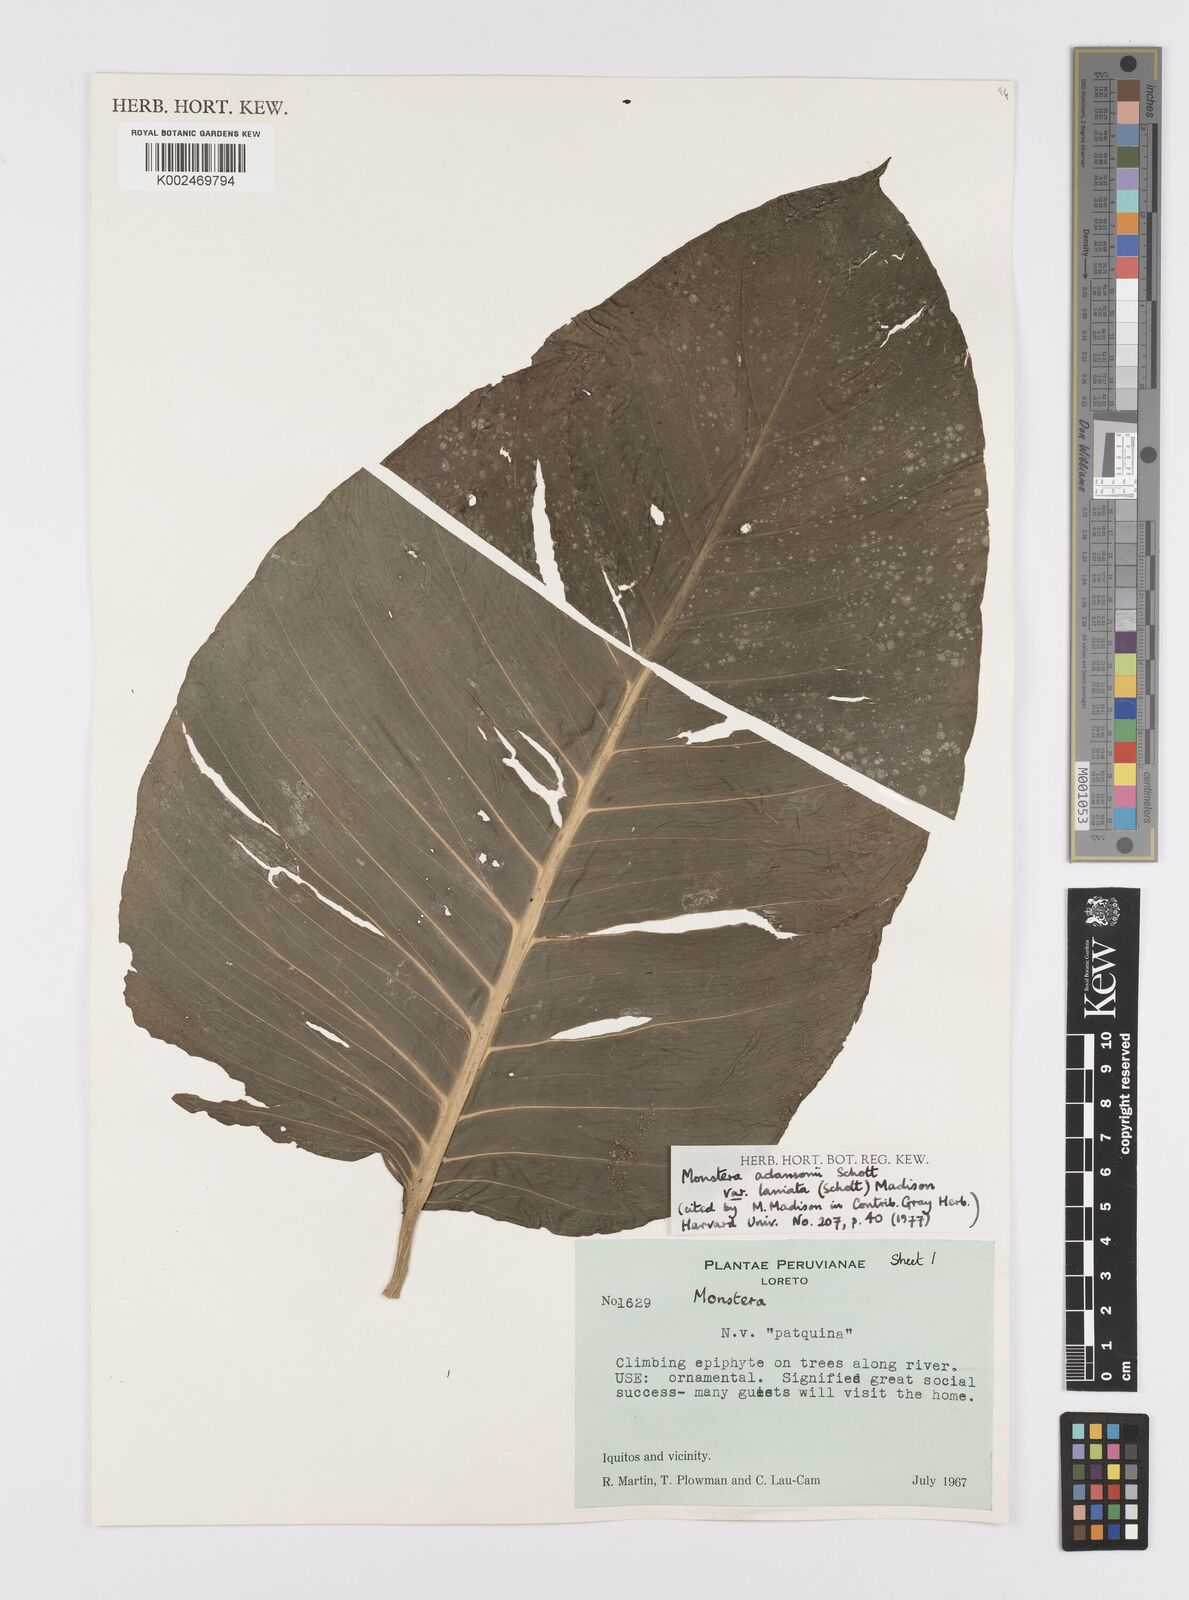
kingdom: Plantae
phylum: Tracheophyta
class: Liliopsida
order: Alismatales
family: Araceae
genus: Monstera
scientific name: Monstera adansonii
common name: Tarovine
